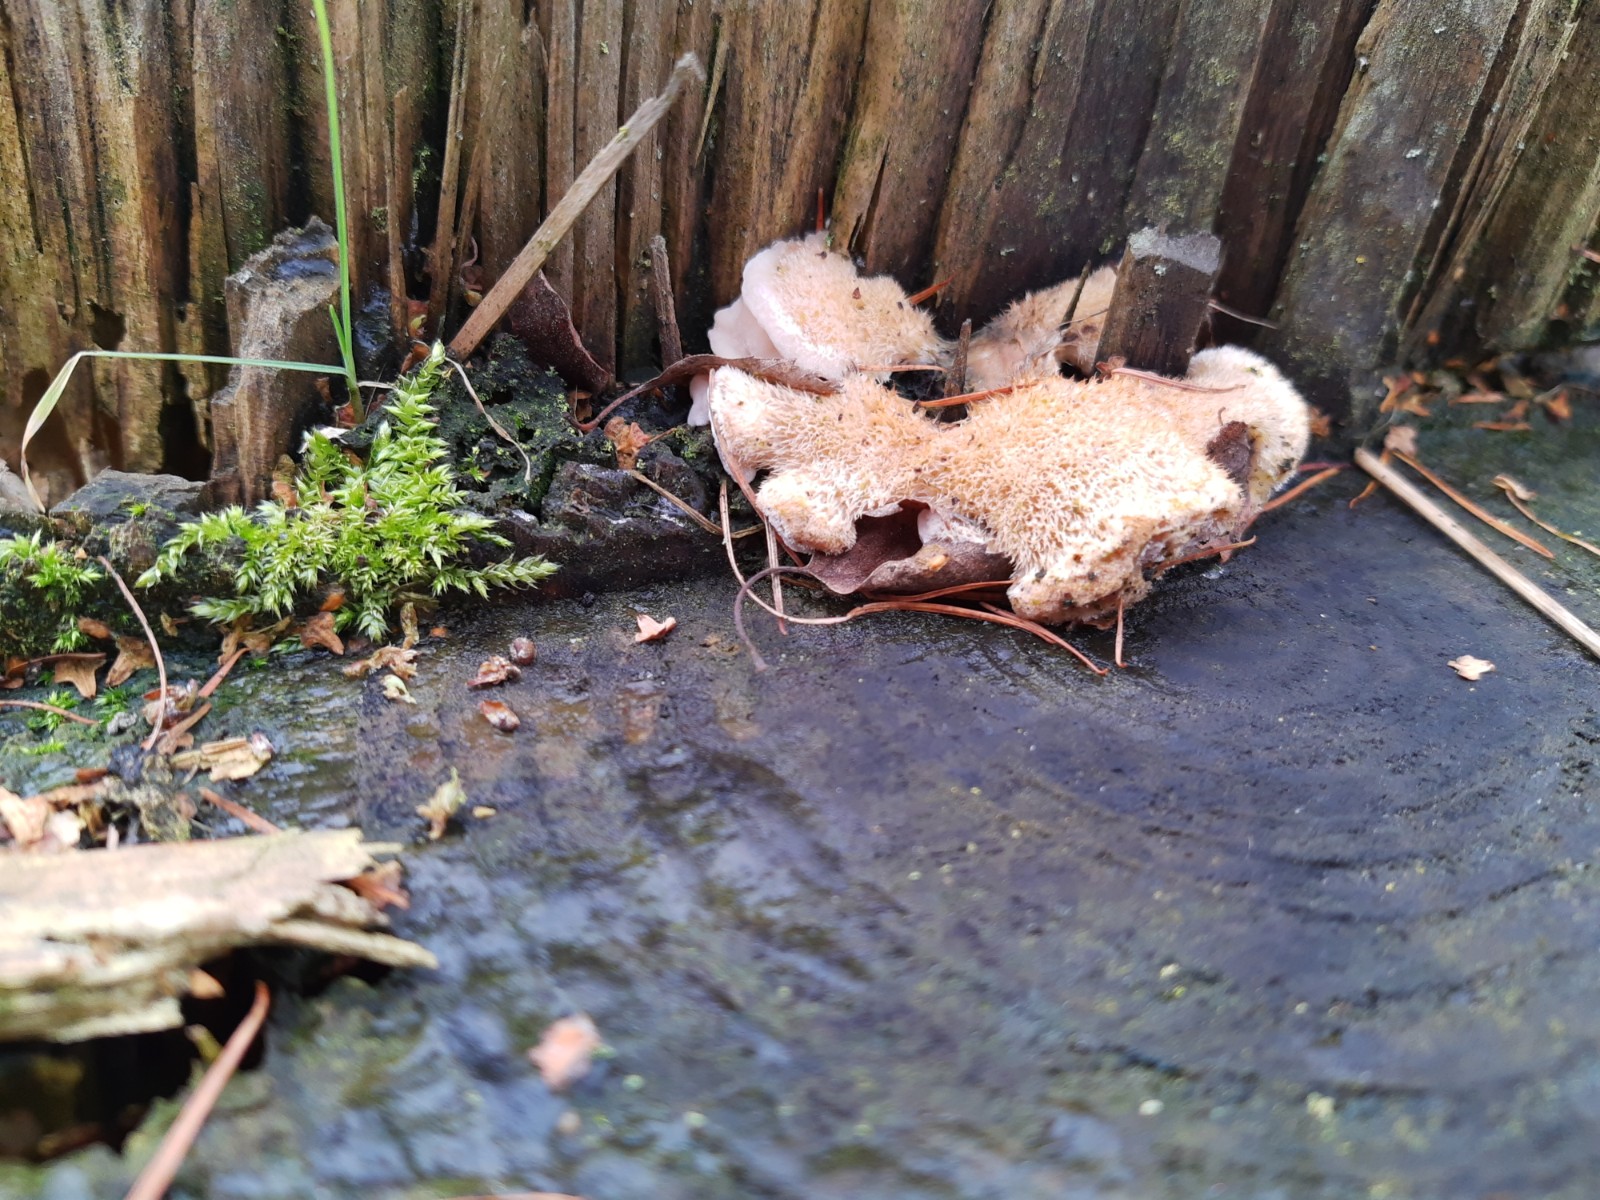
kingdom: Fungi
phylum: Basidiomycota
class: Agaricomycetes
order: Polyporales
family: Fomitopsidaceae
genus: Climacocystis
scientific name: Climacocystis borealis
